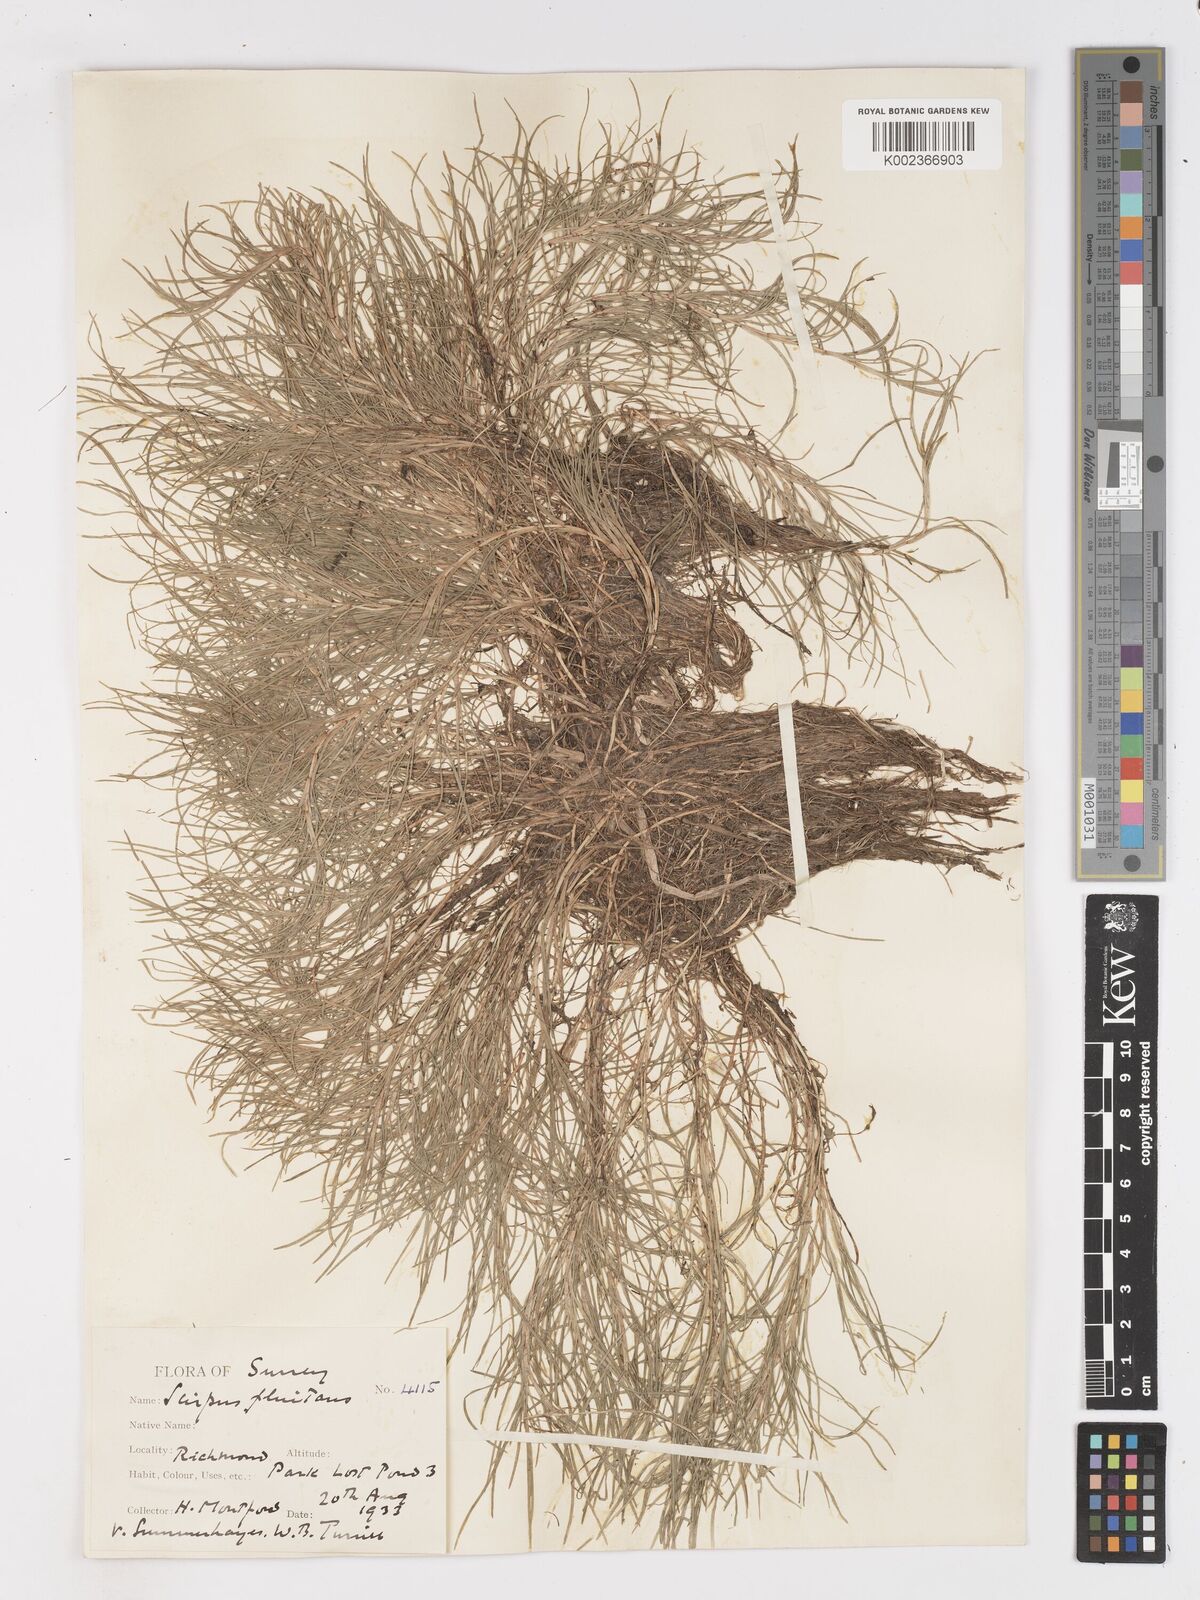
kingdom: Plantae
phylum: Tracheophyta
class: Liliopsida
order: Poales
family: Cyperaceae
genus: Isolepis
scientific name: Isolepis fluitans
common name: Floating club-rush
